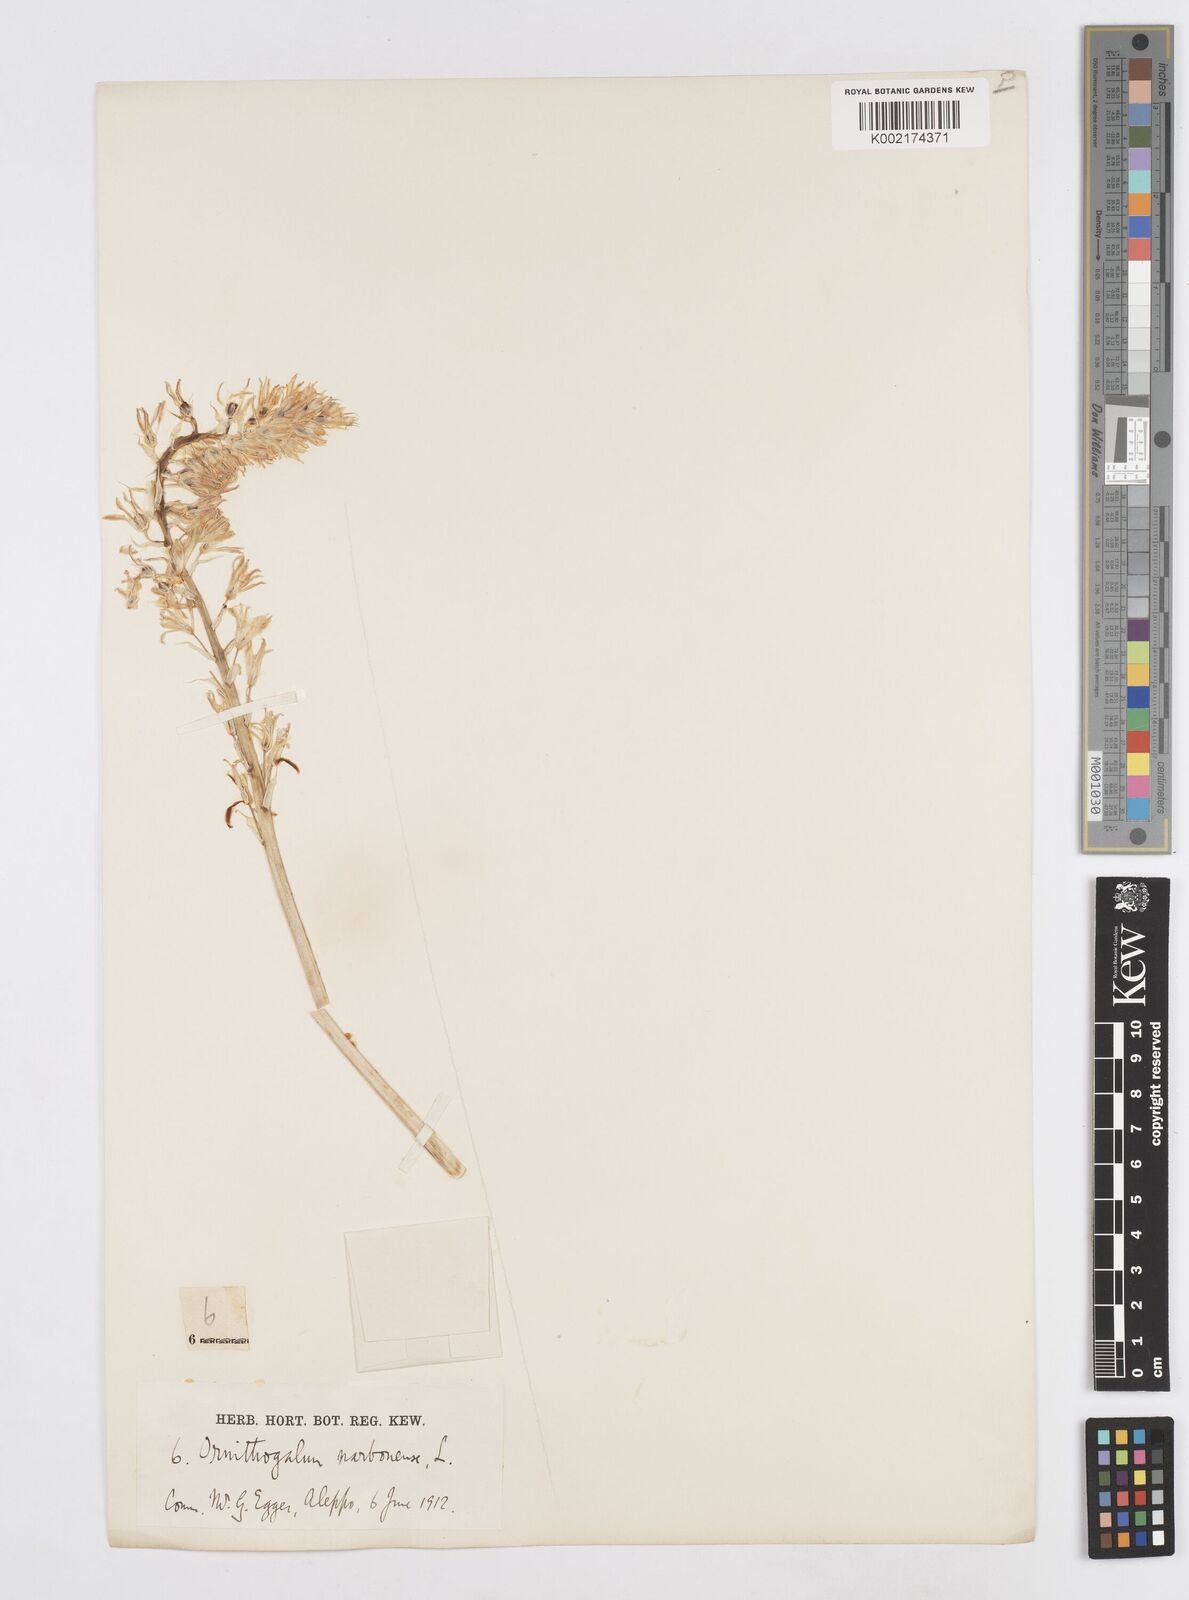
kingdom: Plantae
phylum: Tracheophyta
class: Liliopsida
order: Asparagales
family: Asparagaceae
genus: Ornithogalum
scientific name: Ornithogalum narbonense
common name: Bath-asparagus
